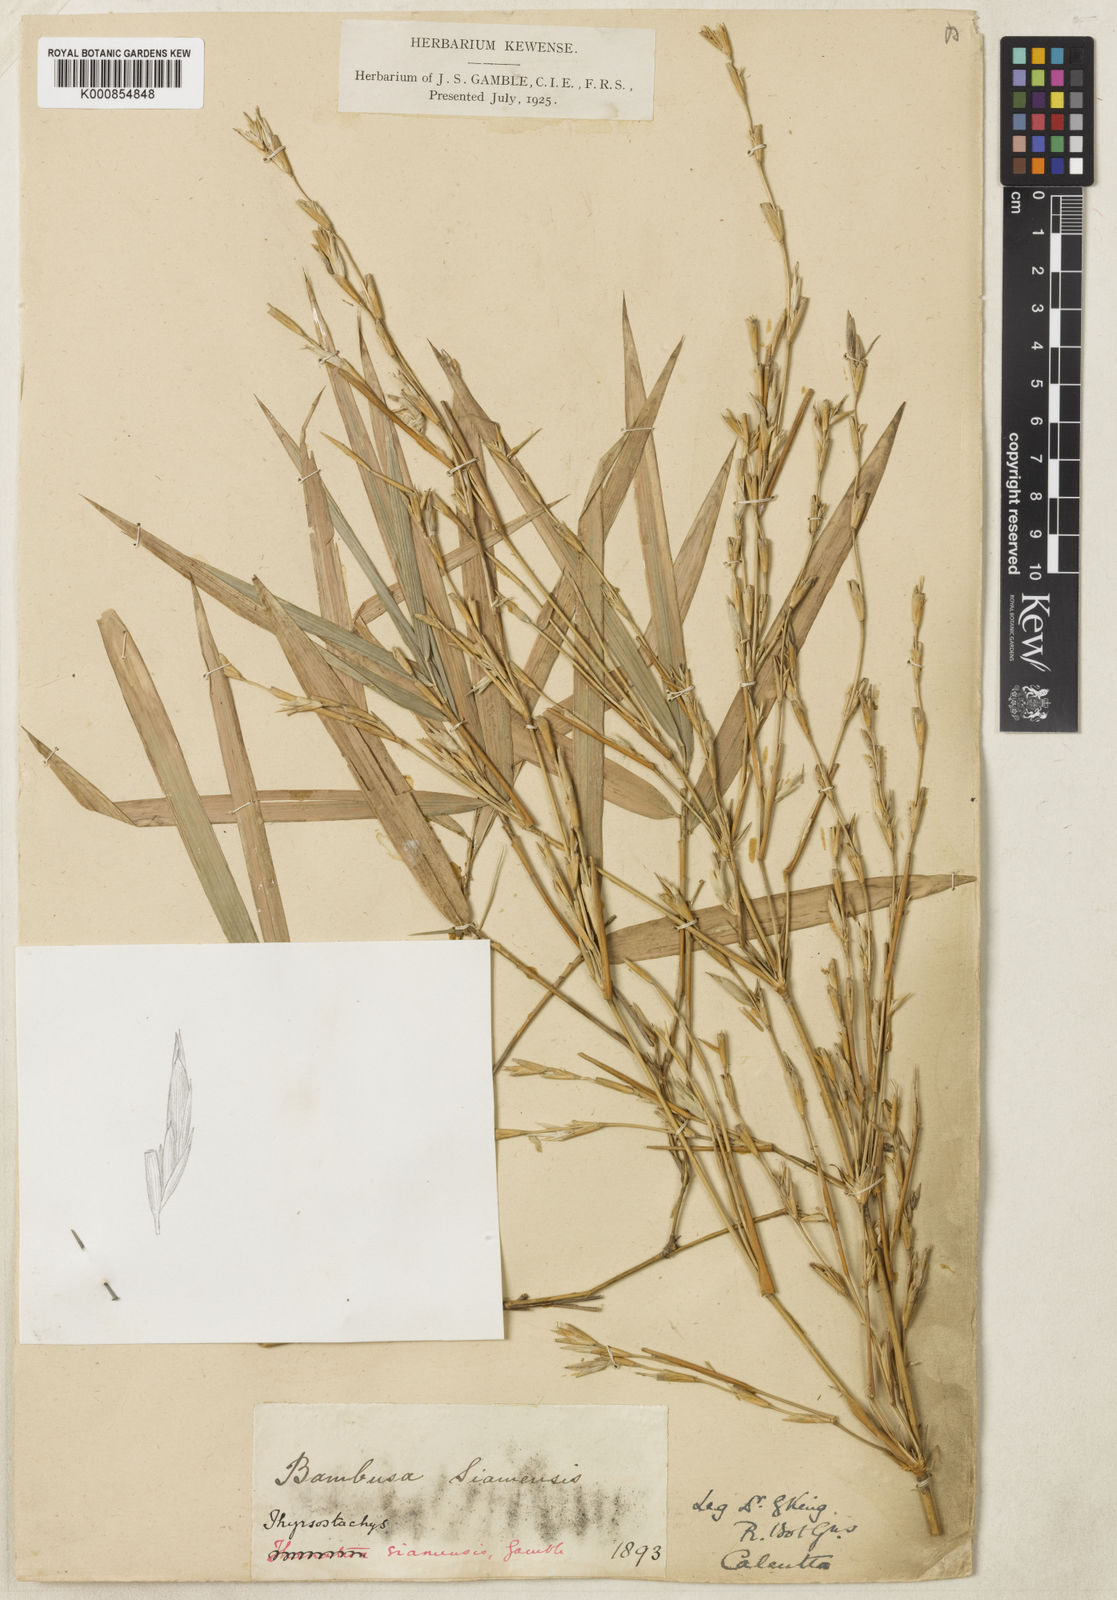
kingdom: Plantae
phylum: Tracheophyta
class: Liliopsida
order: Poales
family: Poaceae
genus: Thyrsostachys
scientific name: Thyrsostachys siamensis
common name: Thailand bamboo
